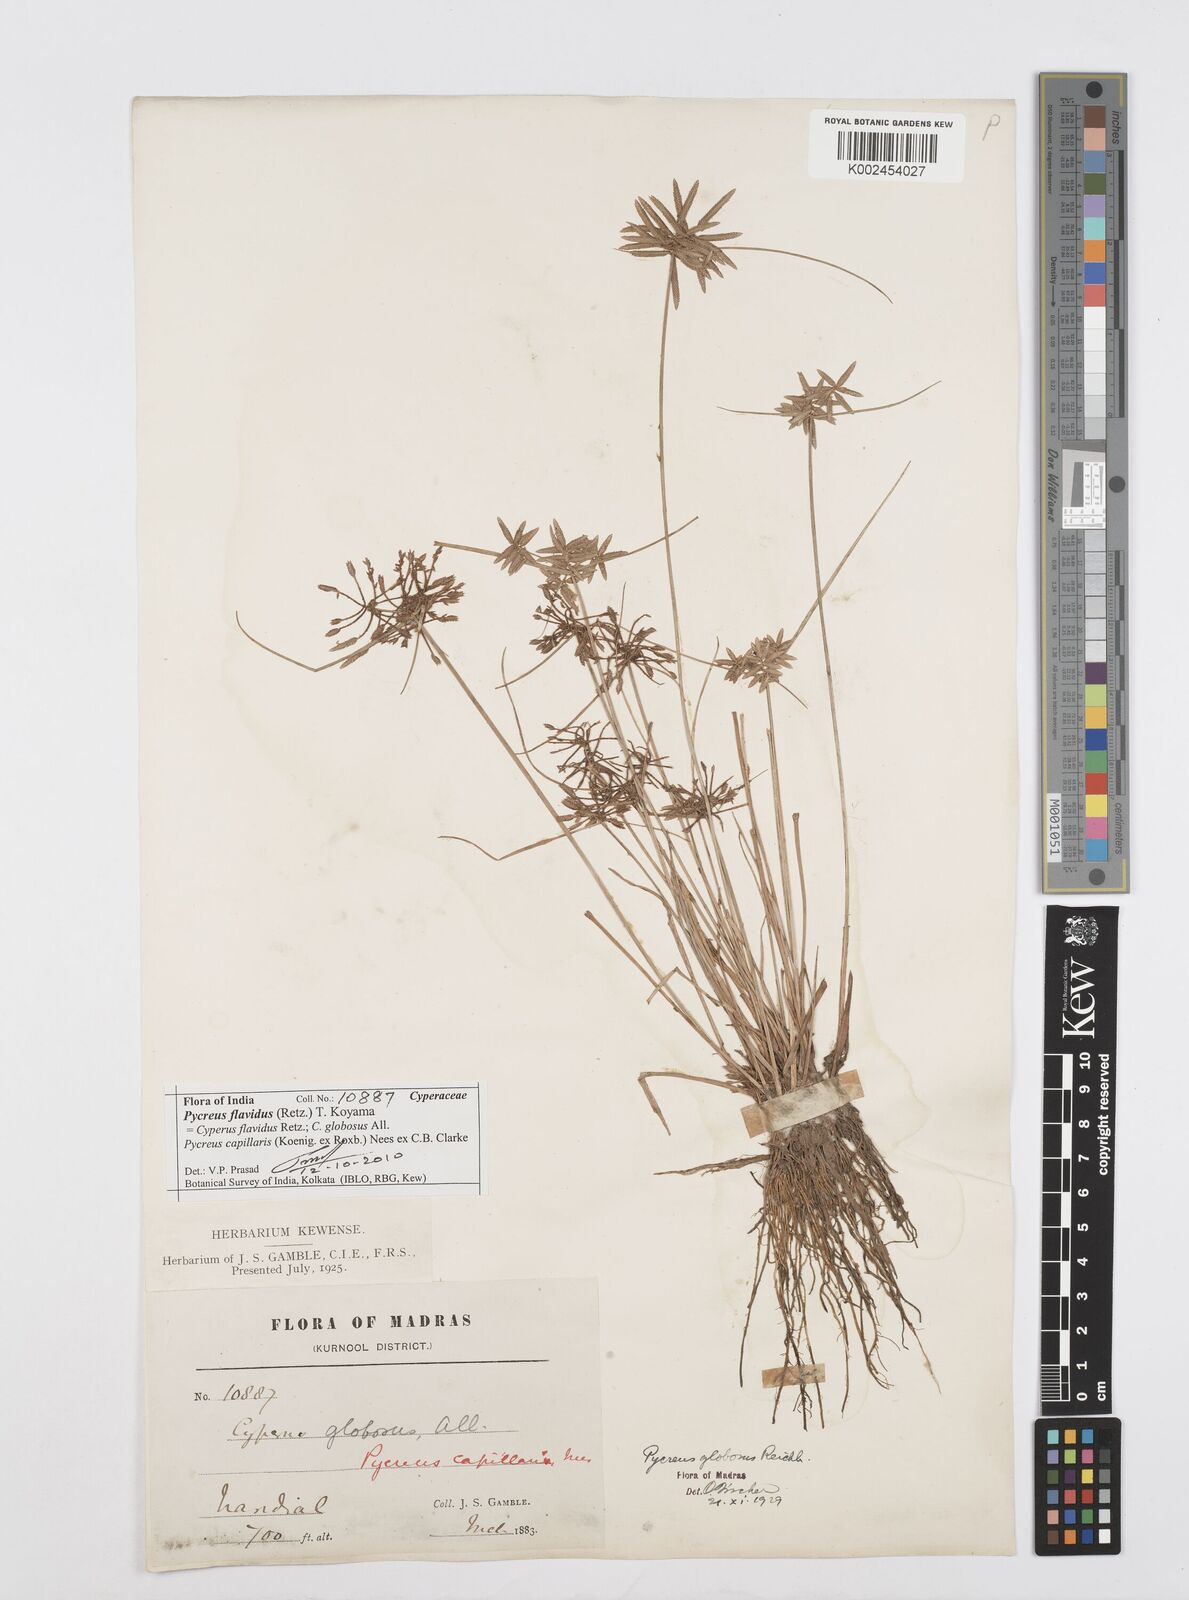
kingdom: Plantae
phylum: Tracheophyta
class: Liliopsida
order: Poales
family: Cyperaceae
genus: Cyperus
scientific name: Cyperus flavidus
